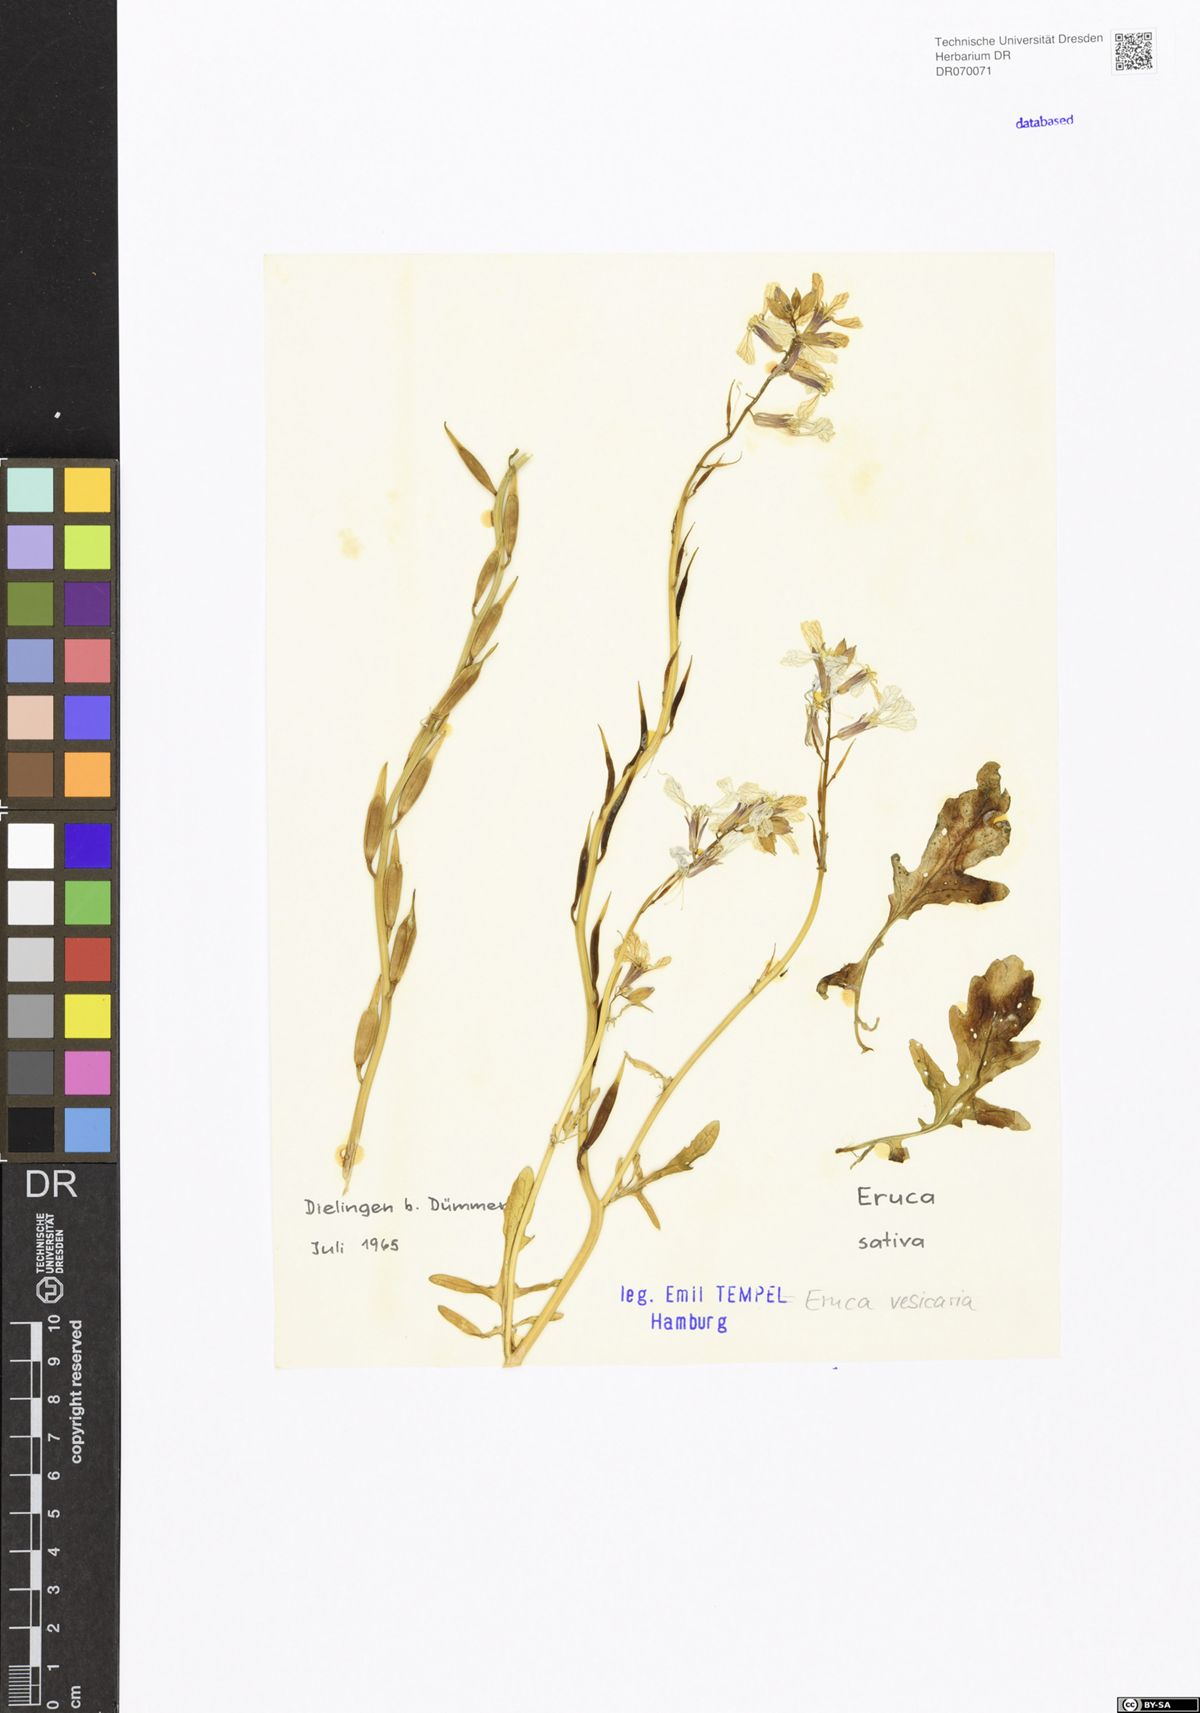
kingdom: Plantae
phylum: Tracheophyta
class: Magnoliopsida
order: Brassicales
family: Brassicaceae
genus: Eruca
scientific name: Eruca vesicaria
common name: Garden rocket
